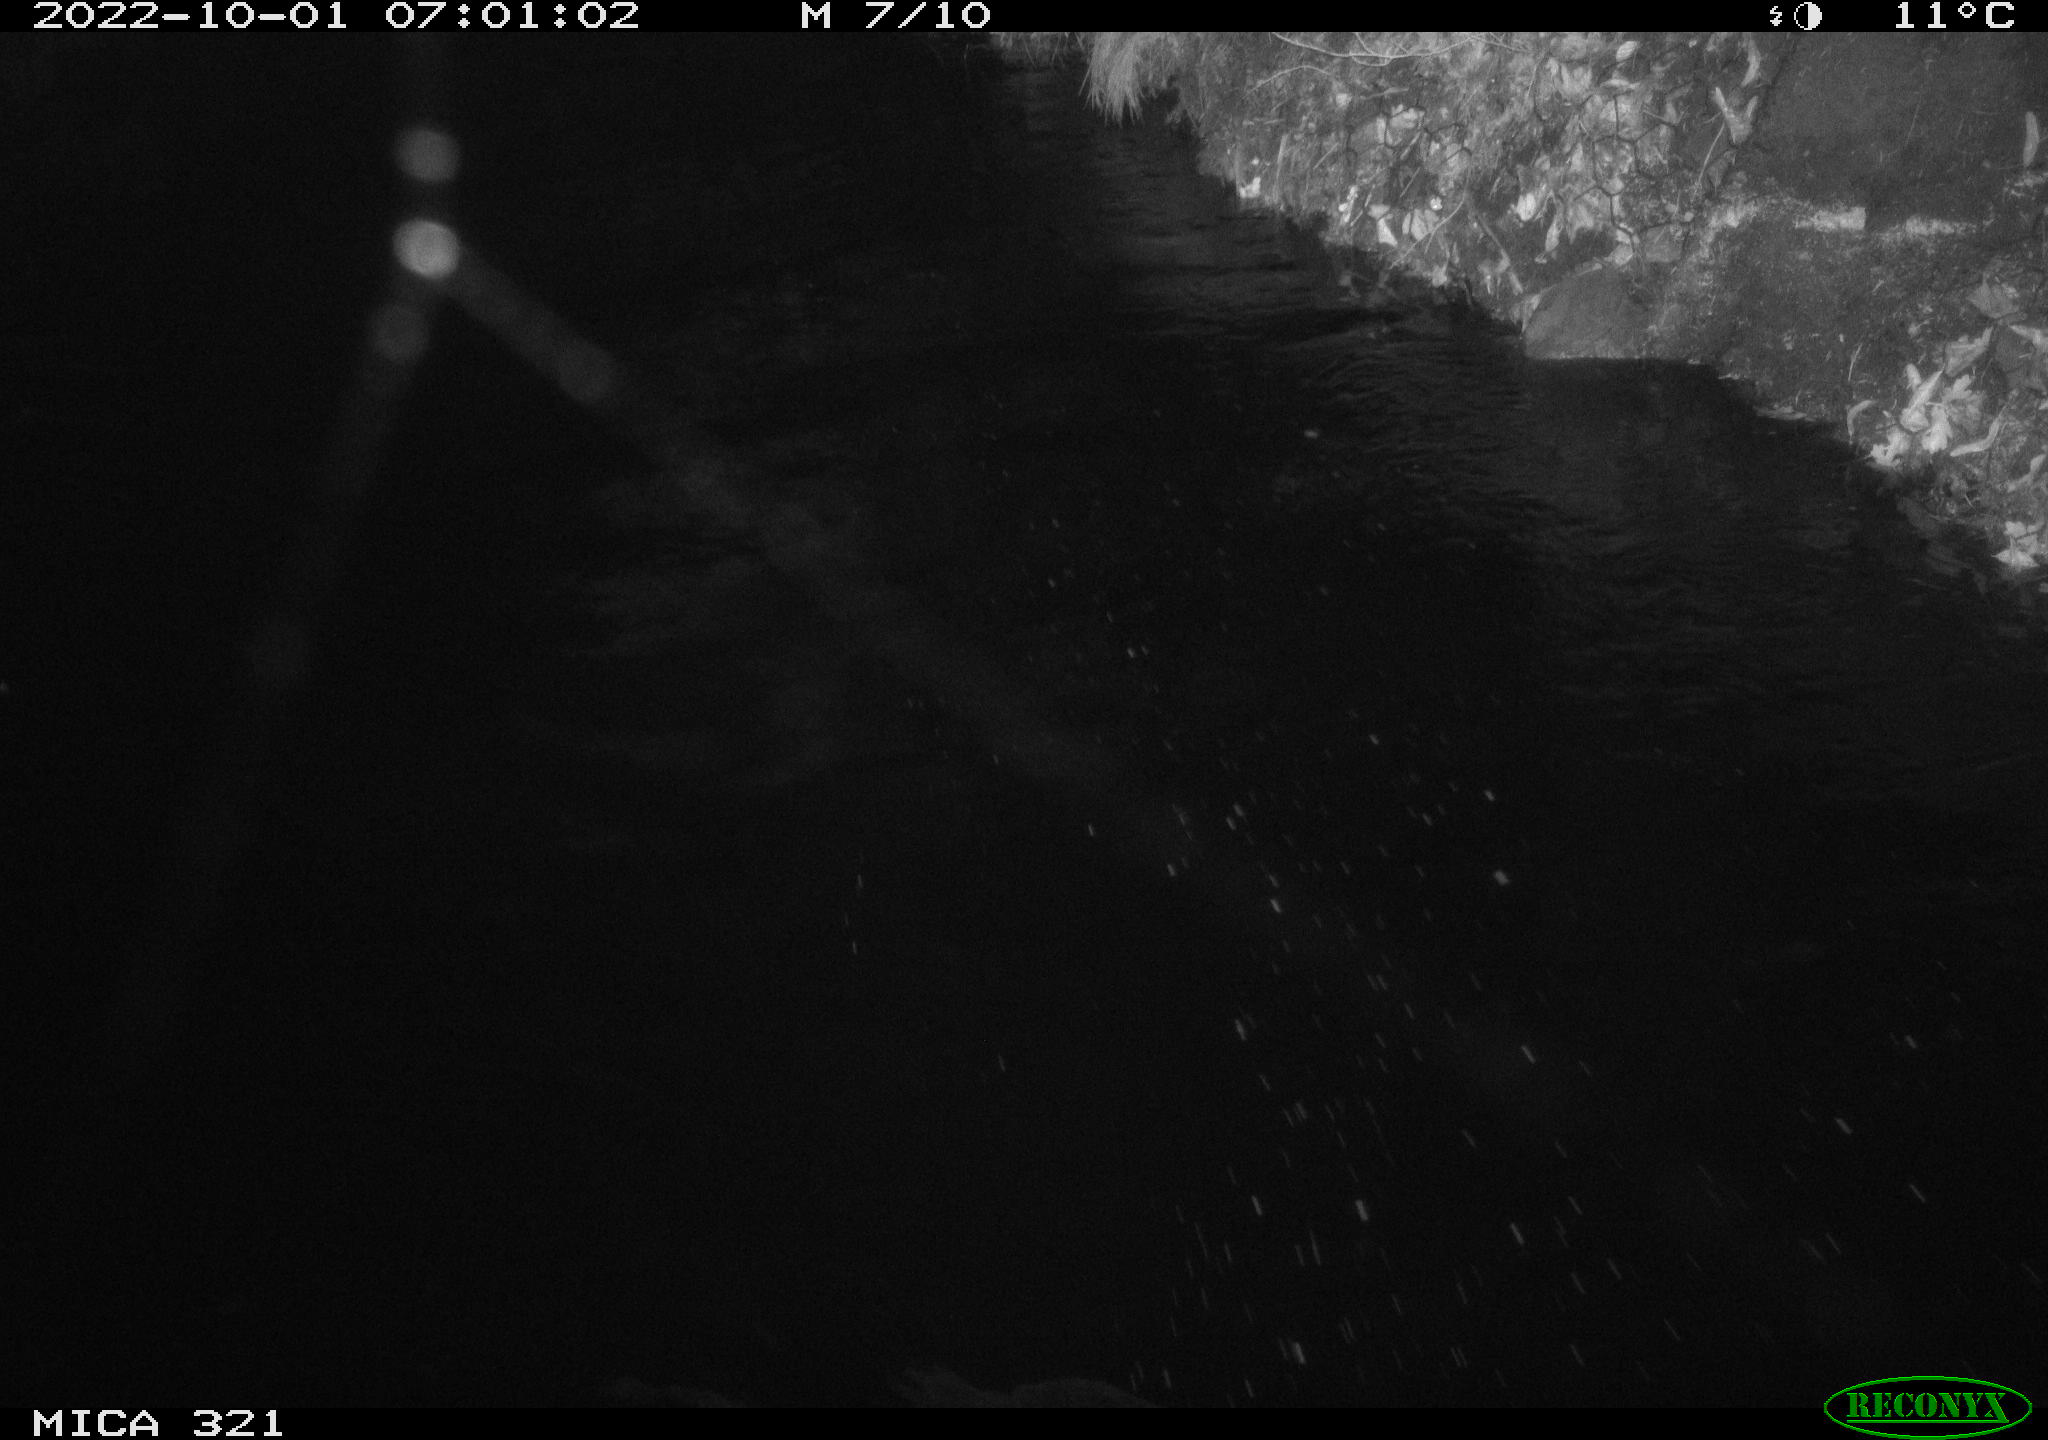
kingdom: Animalia
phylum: Chordata
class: Aves
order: Anseriformes
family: Anatidae
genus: Anas
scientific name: Anas
